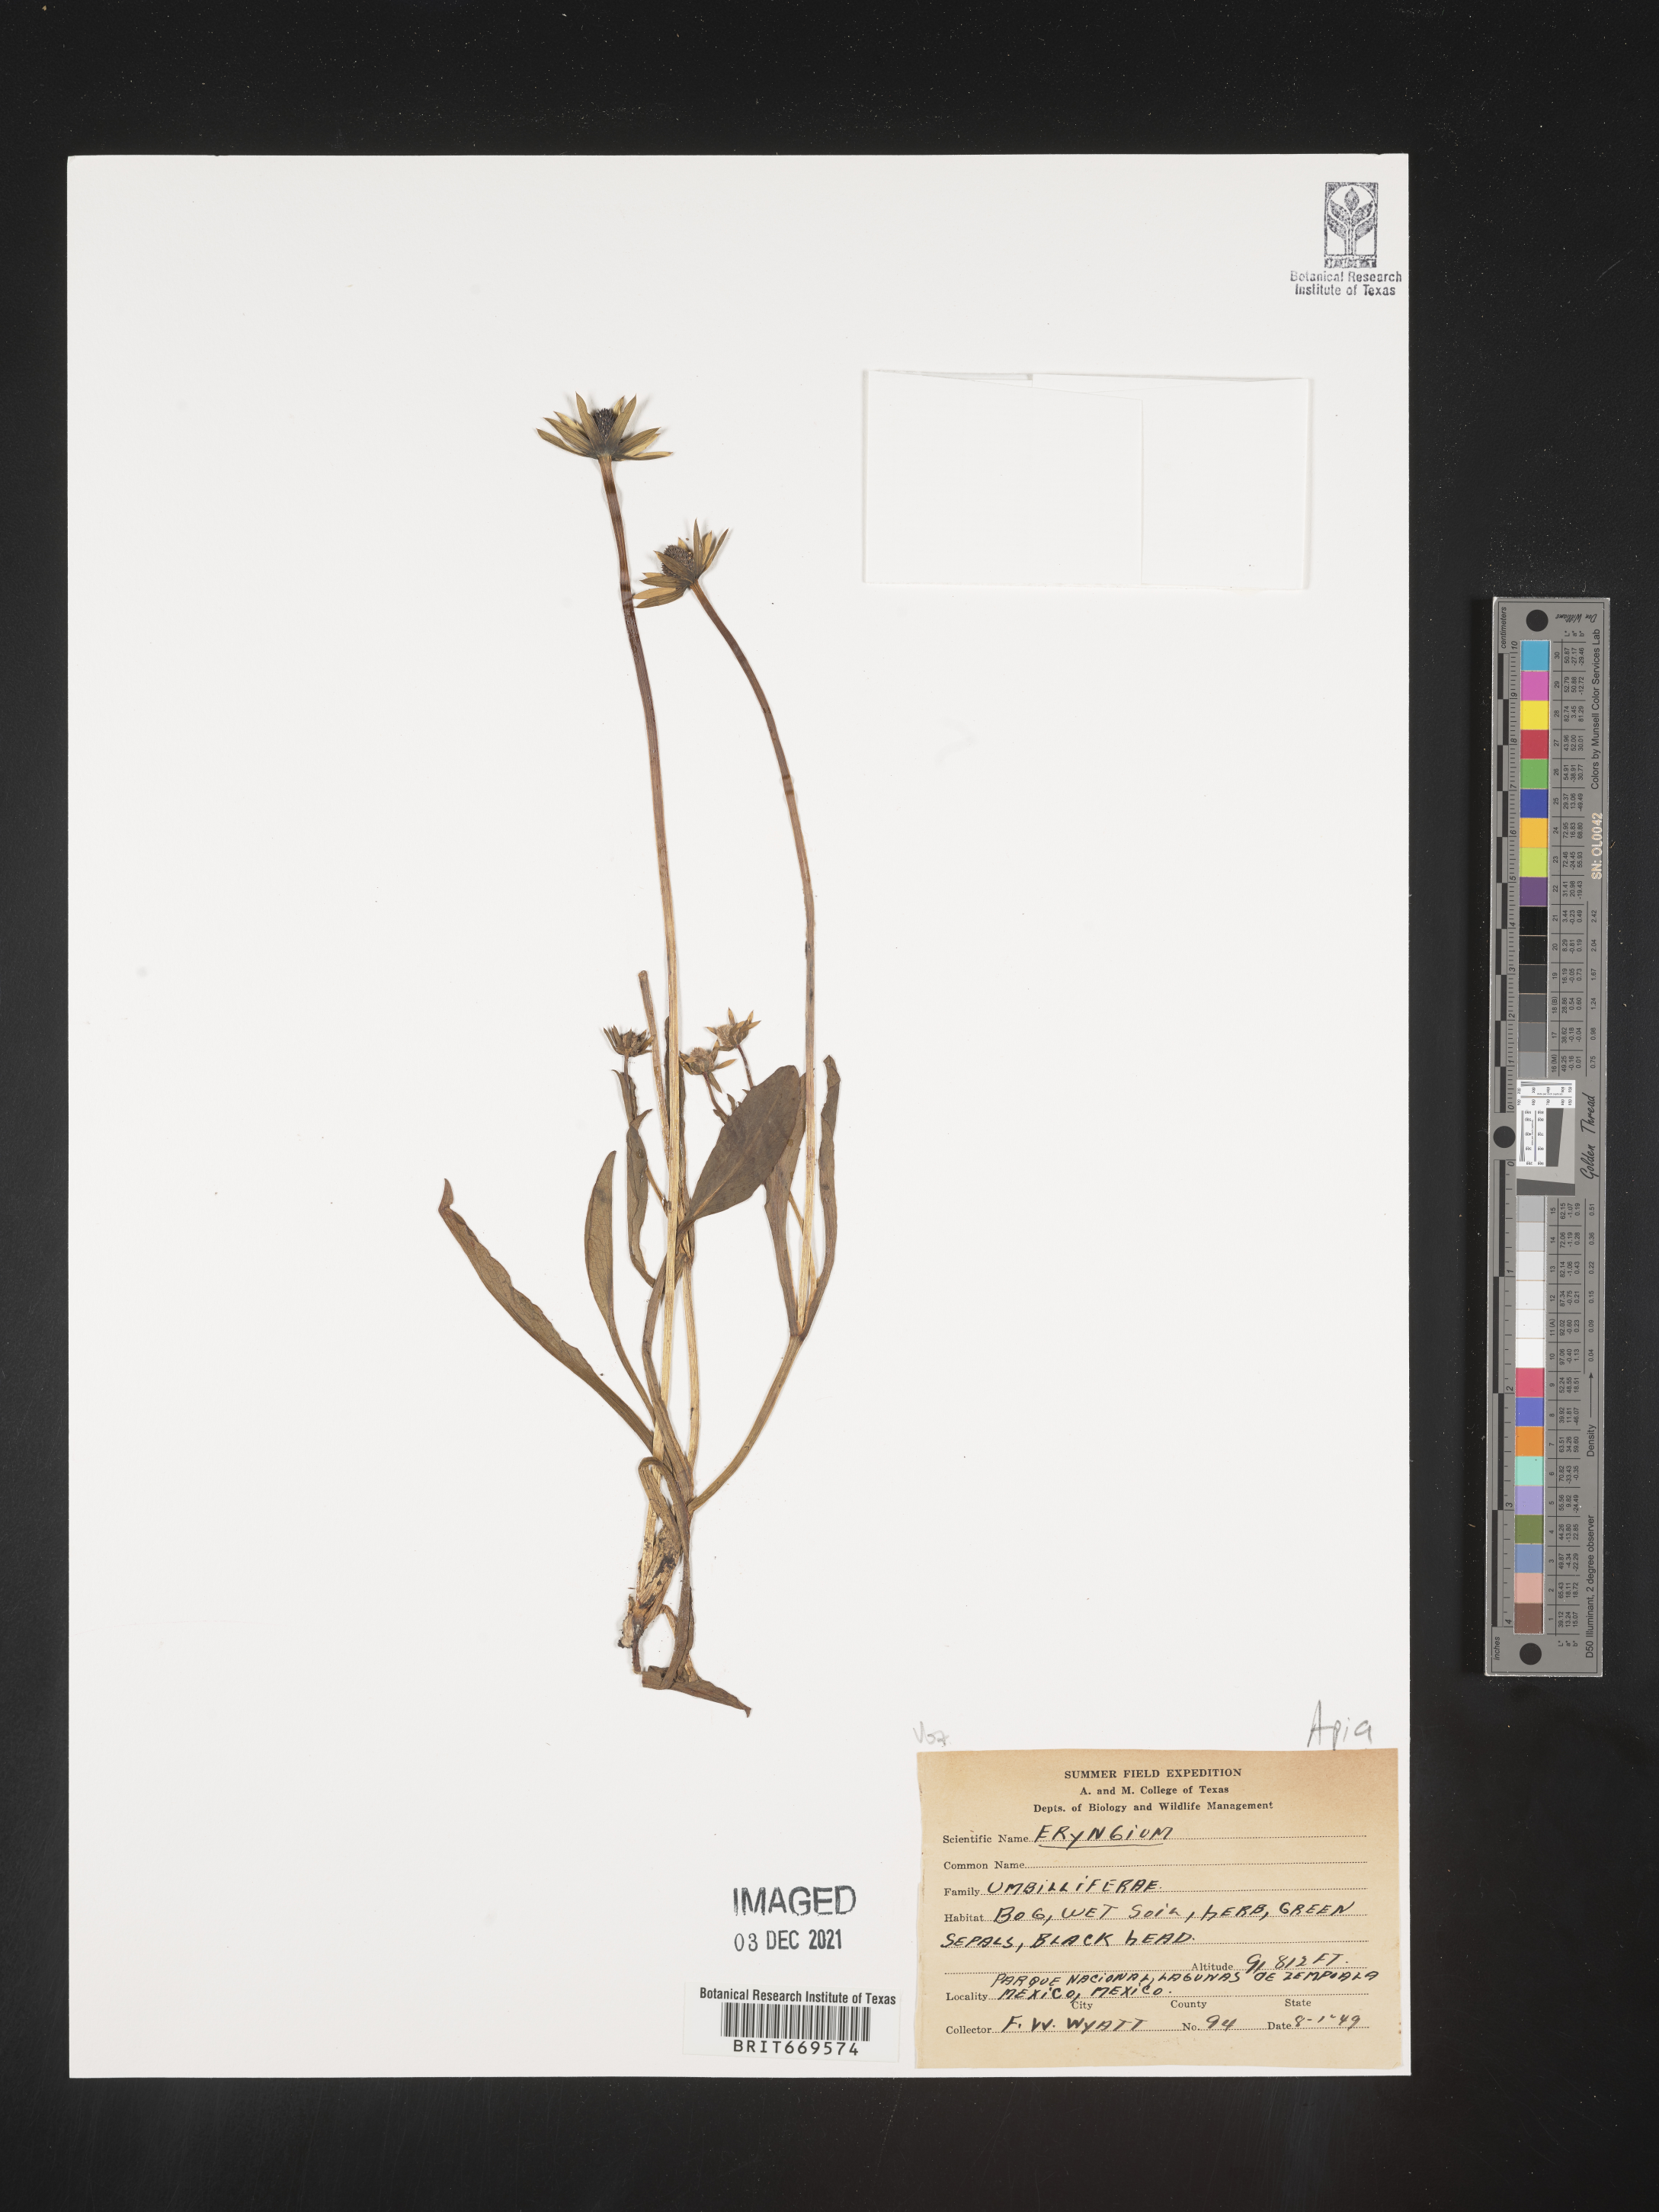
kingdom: Plantae
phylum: Tracheophyta
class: Magnoliopsida
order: Apiales
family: Apiaceae
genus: Eryngium
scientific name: Eryngium
